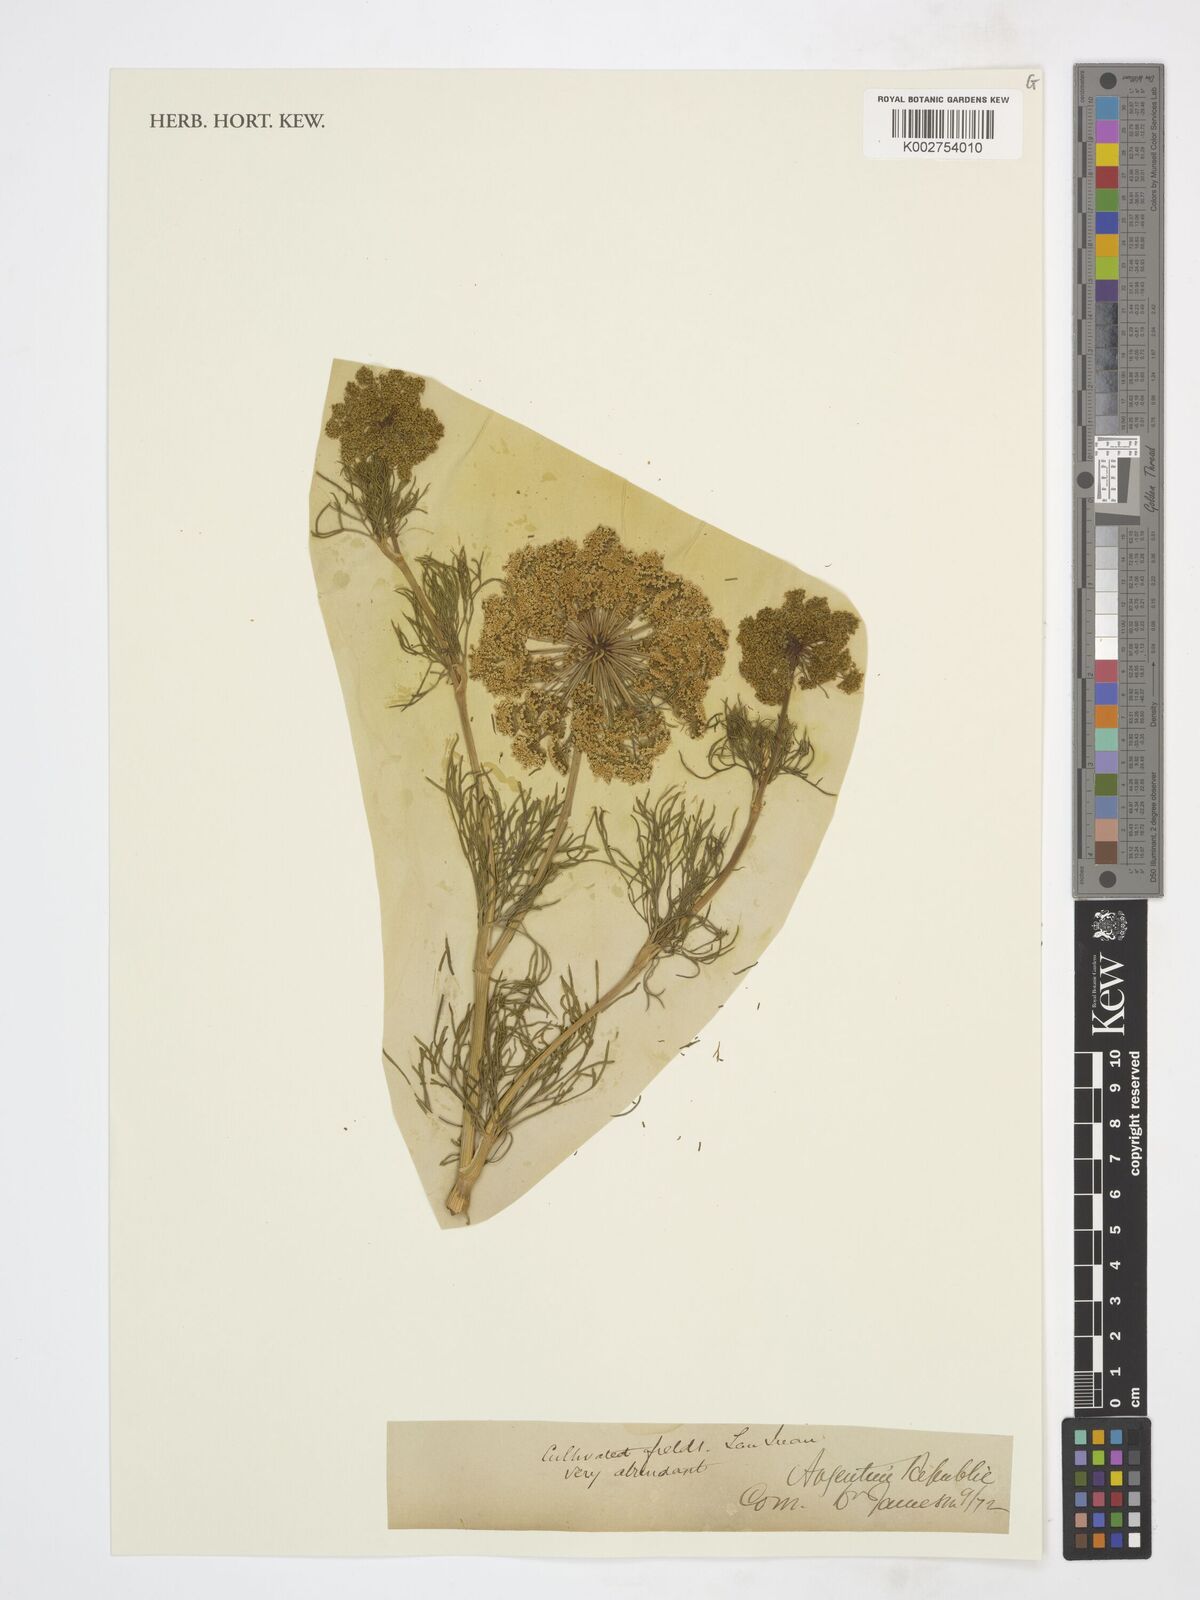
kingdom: Plantae
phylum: Tracheophyta
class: Magnoliopsida
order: Apiales
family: Apiaceae
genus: Ammi
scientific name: Ammi
